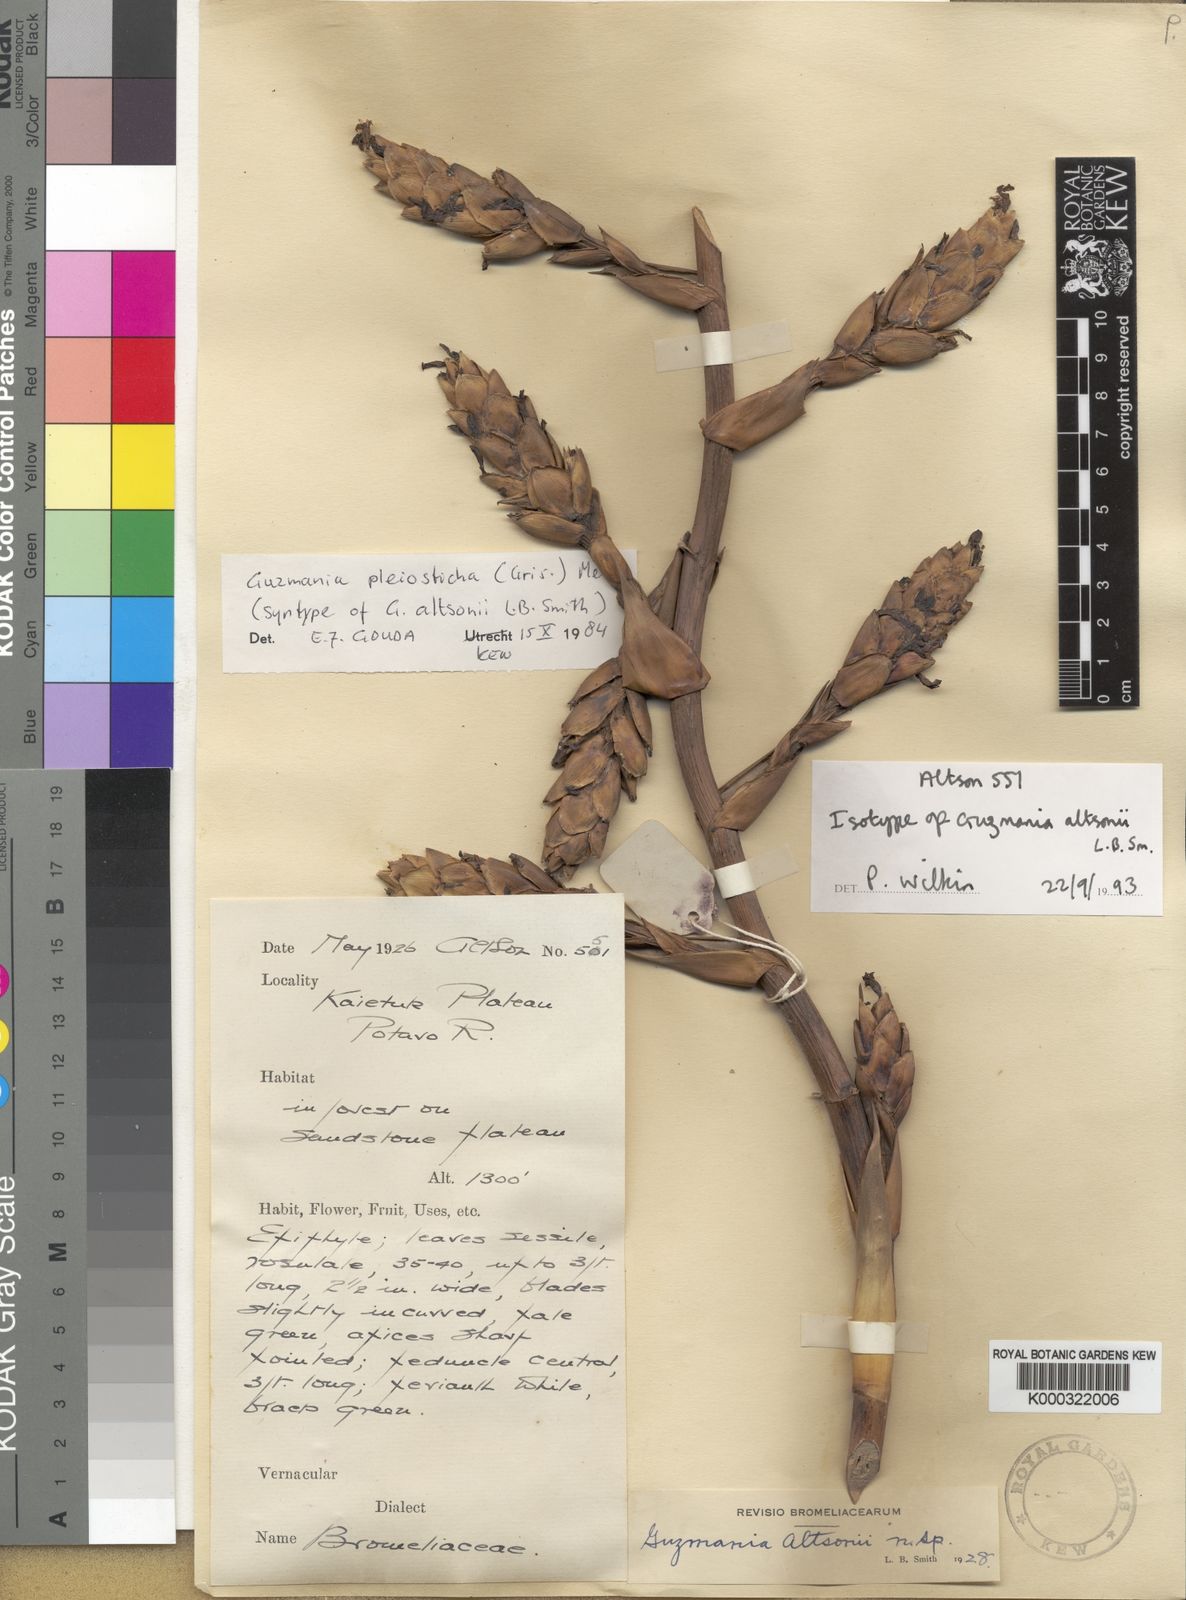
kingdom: Plantae
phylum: Tracheophyta
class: Liliopsida
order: Poales
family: Bromeliaceae
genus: Guzmania
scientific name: Guzmania altsonii
